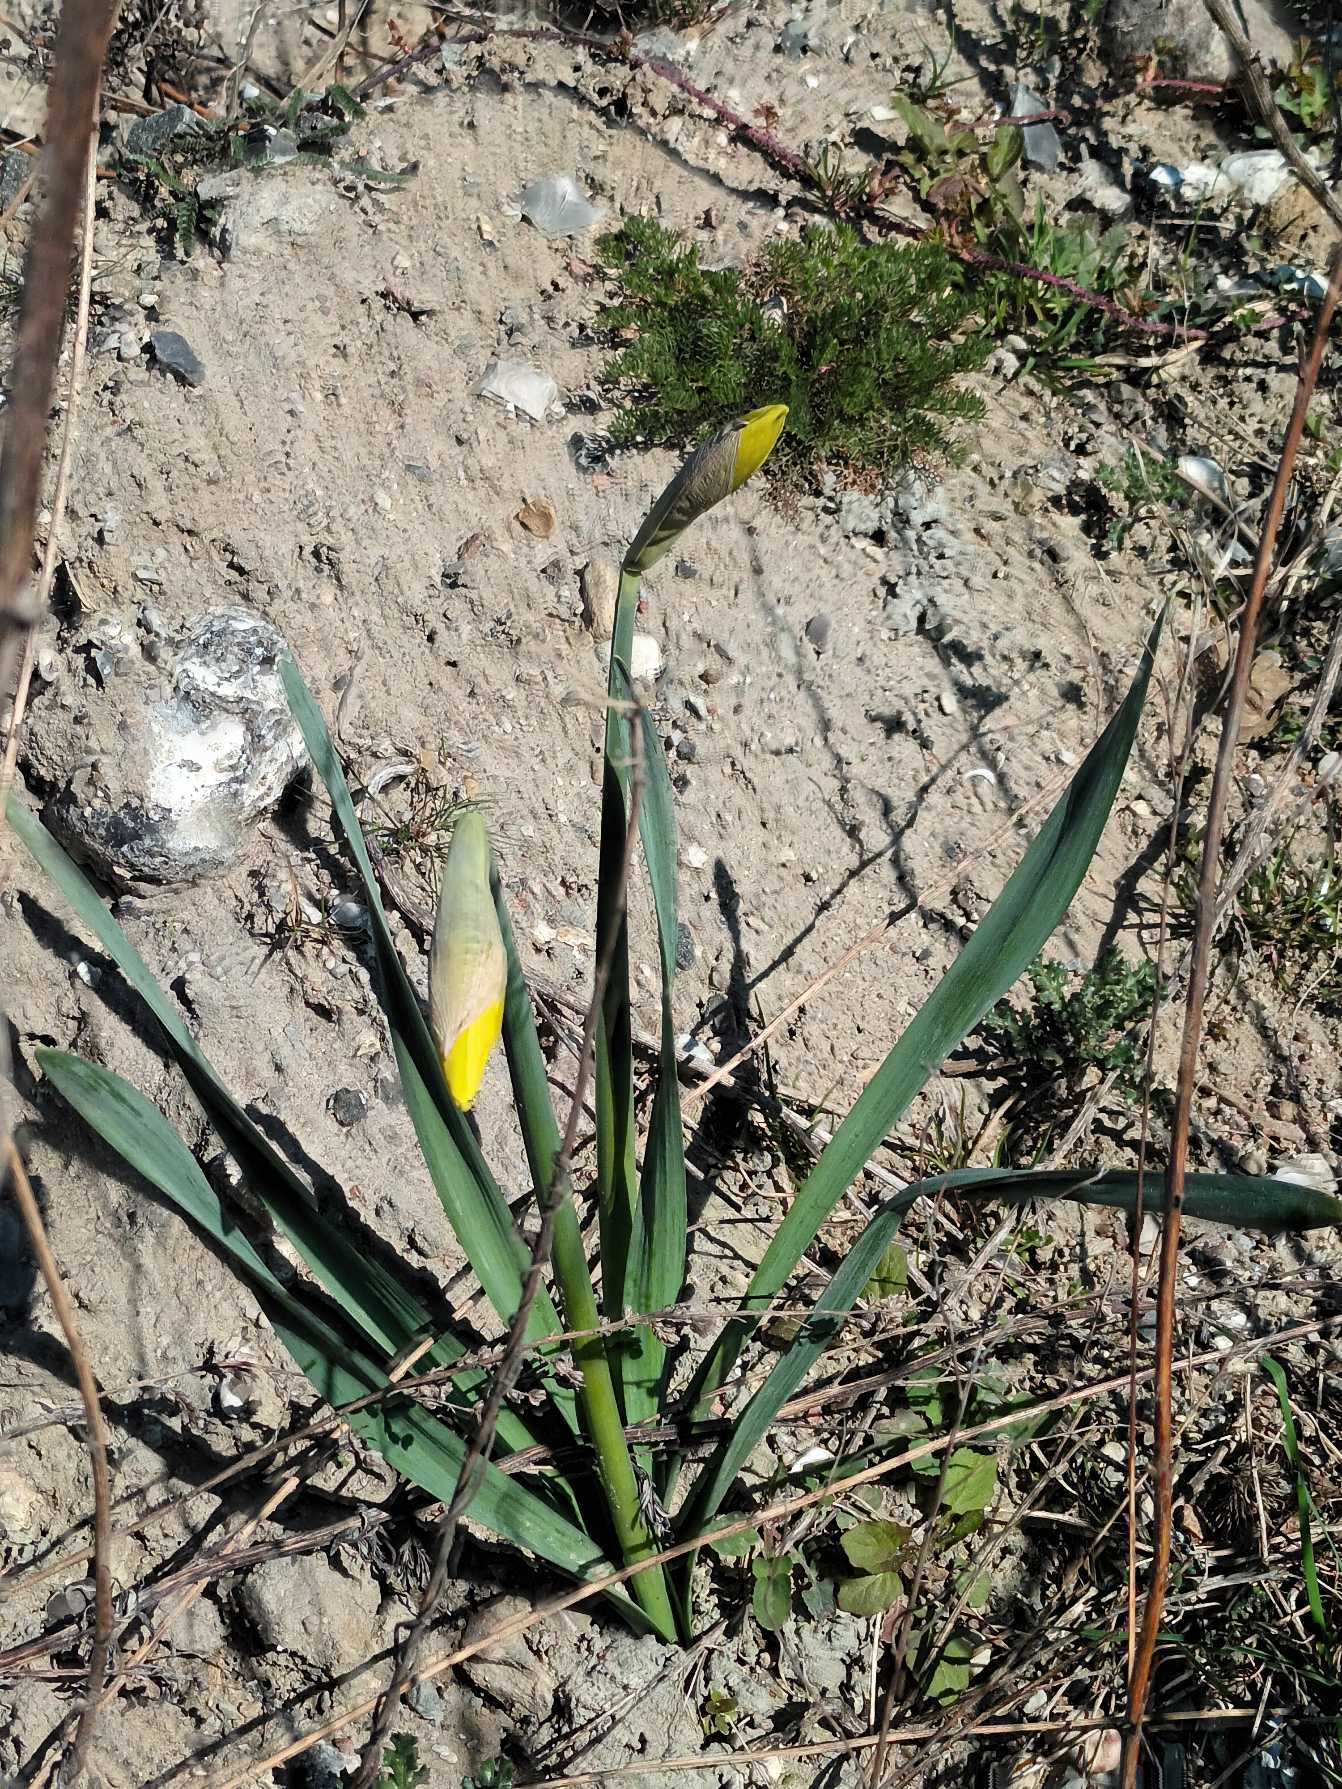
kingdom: Plantae
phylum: Tracheophyta
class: Liliopsida
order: Asparagales
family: Amaryllidaceae
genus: Narcissus
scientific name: Narcissus pseudonarcissus
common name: Påskelilje
